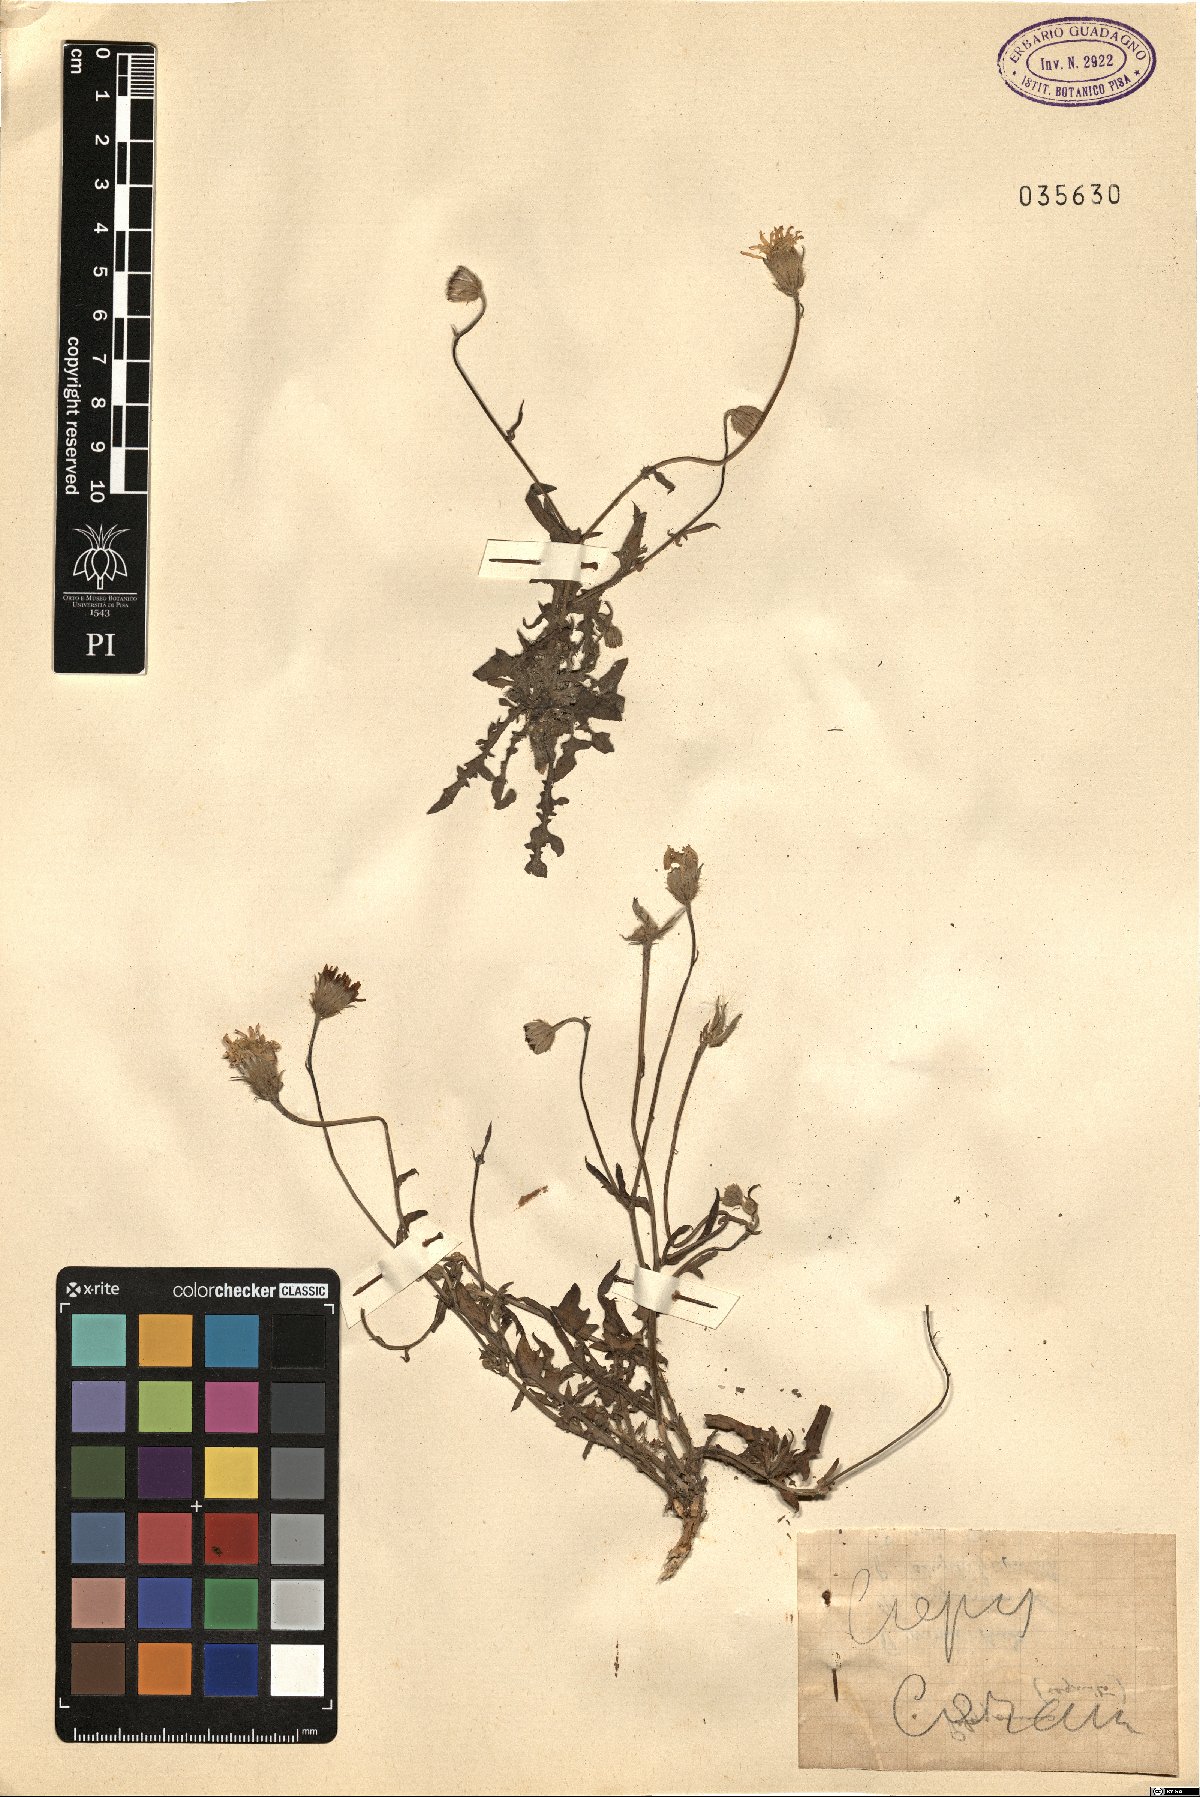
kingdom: Plantae
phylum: Tracheophyta
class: Magnoliopsida
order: Asterales
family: Asteraceae
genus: Crepis
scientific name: Crepis
